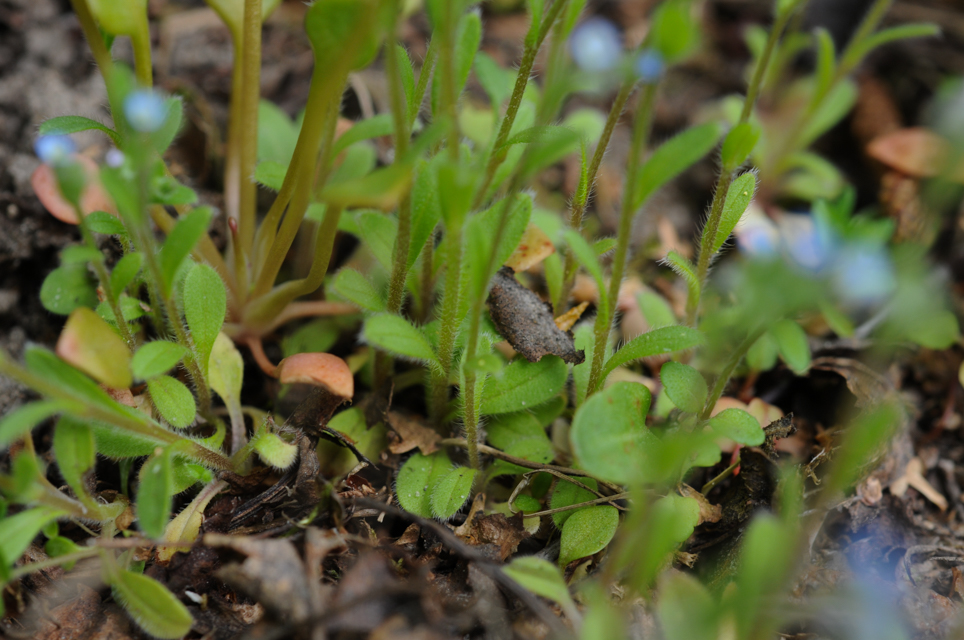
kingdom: Plantae
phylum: Tracheophyta
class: Magnoliopsida
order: Boraginales
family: Boraginaceae
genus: Myosotis
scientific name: Myosotis stricta
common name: Strict forget-me-not
